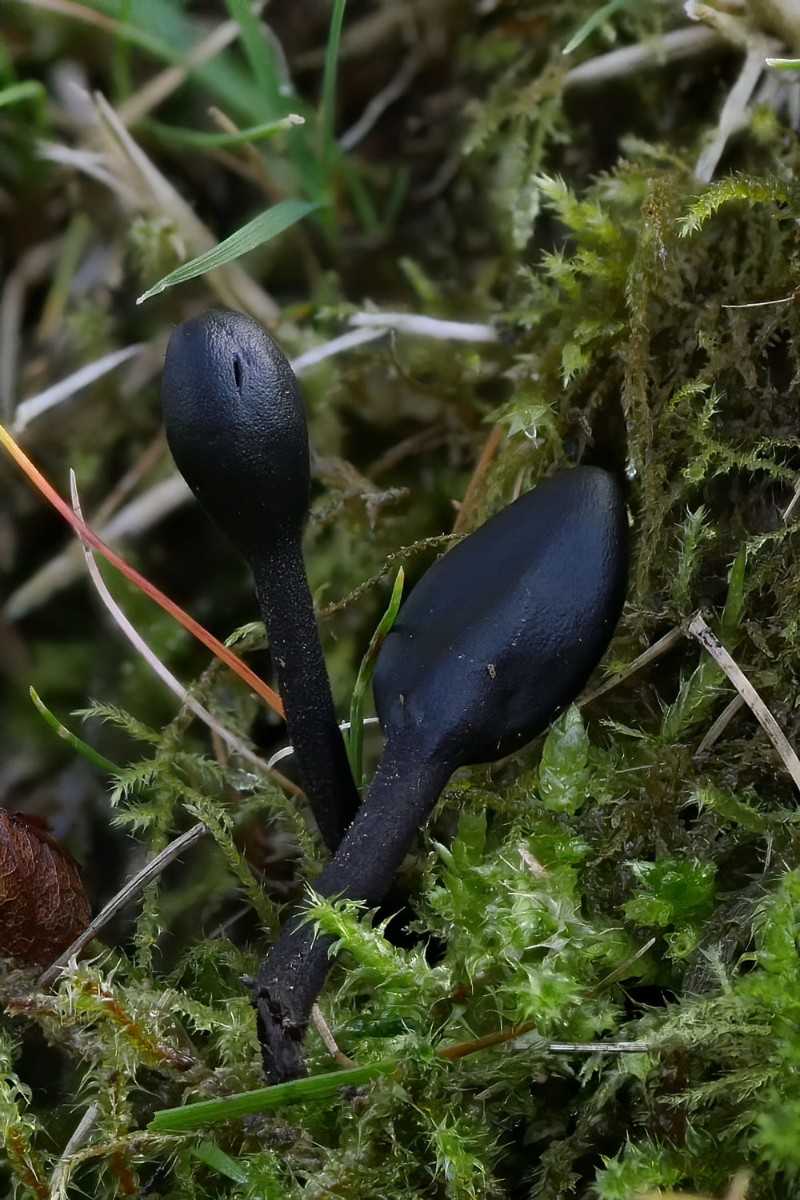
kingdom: Fungi
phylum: Ascomycota
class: Geoglossomycetes
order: Geoglossales
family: Geoglossaceae
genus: Trichoglossum
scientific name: Trichoglossum
